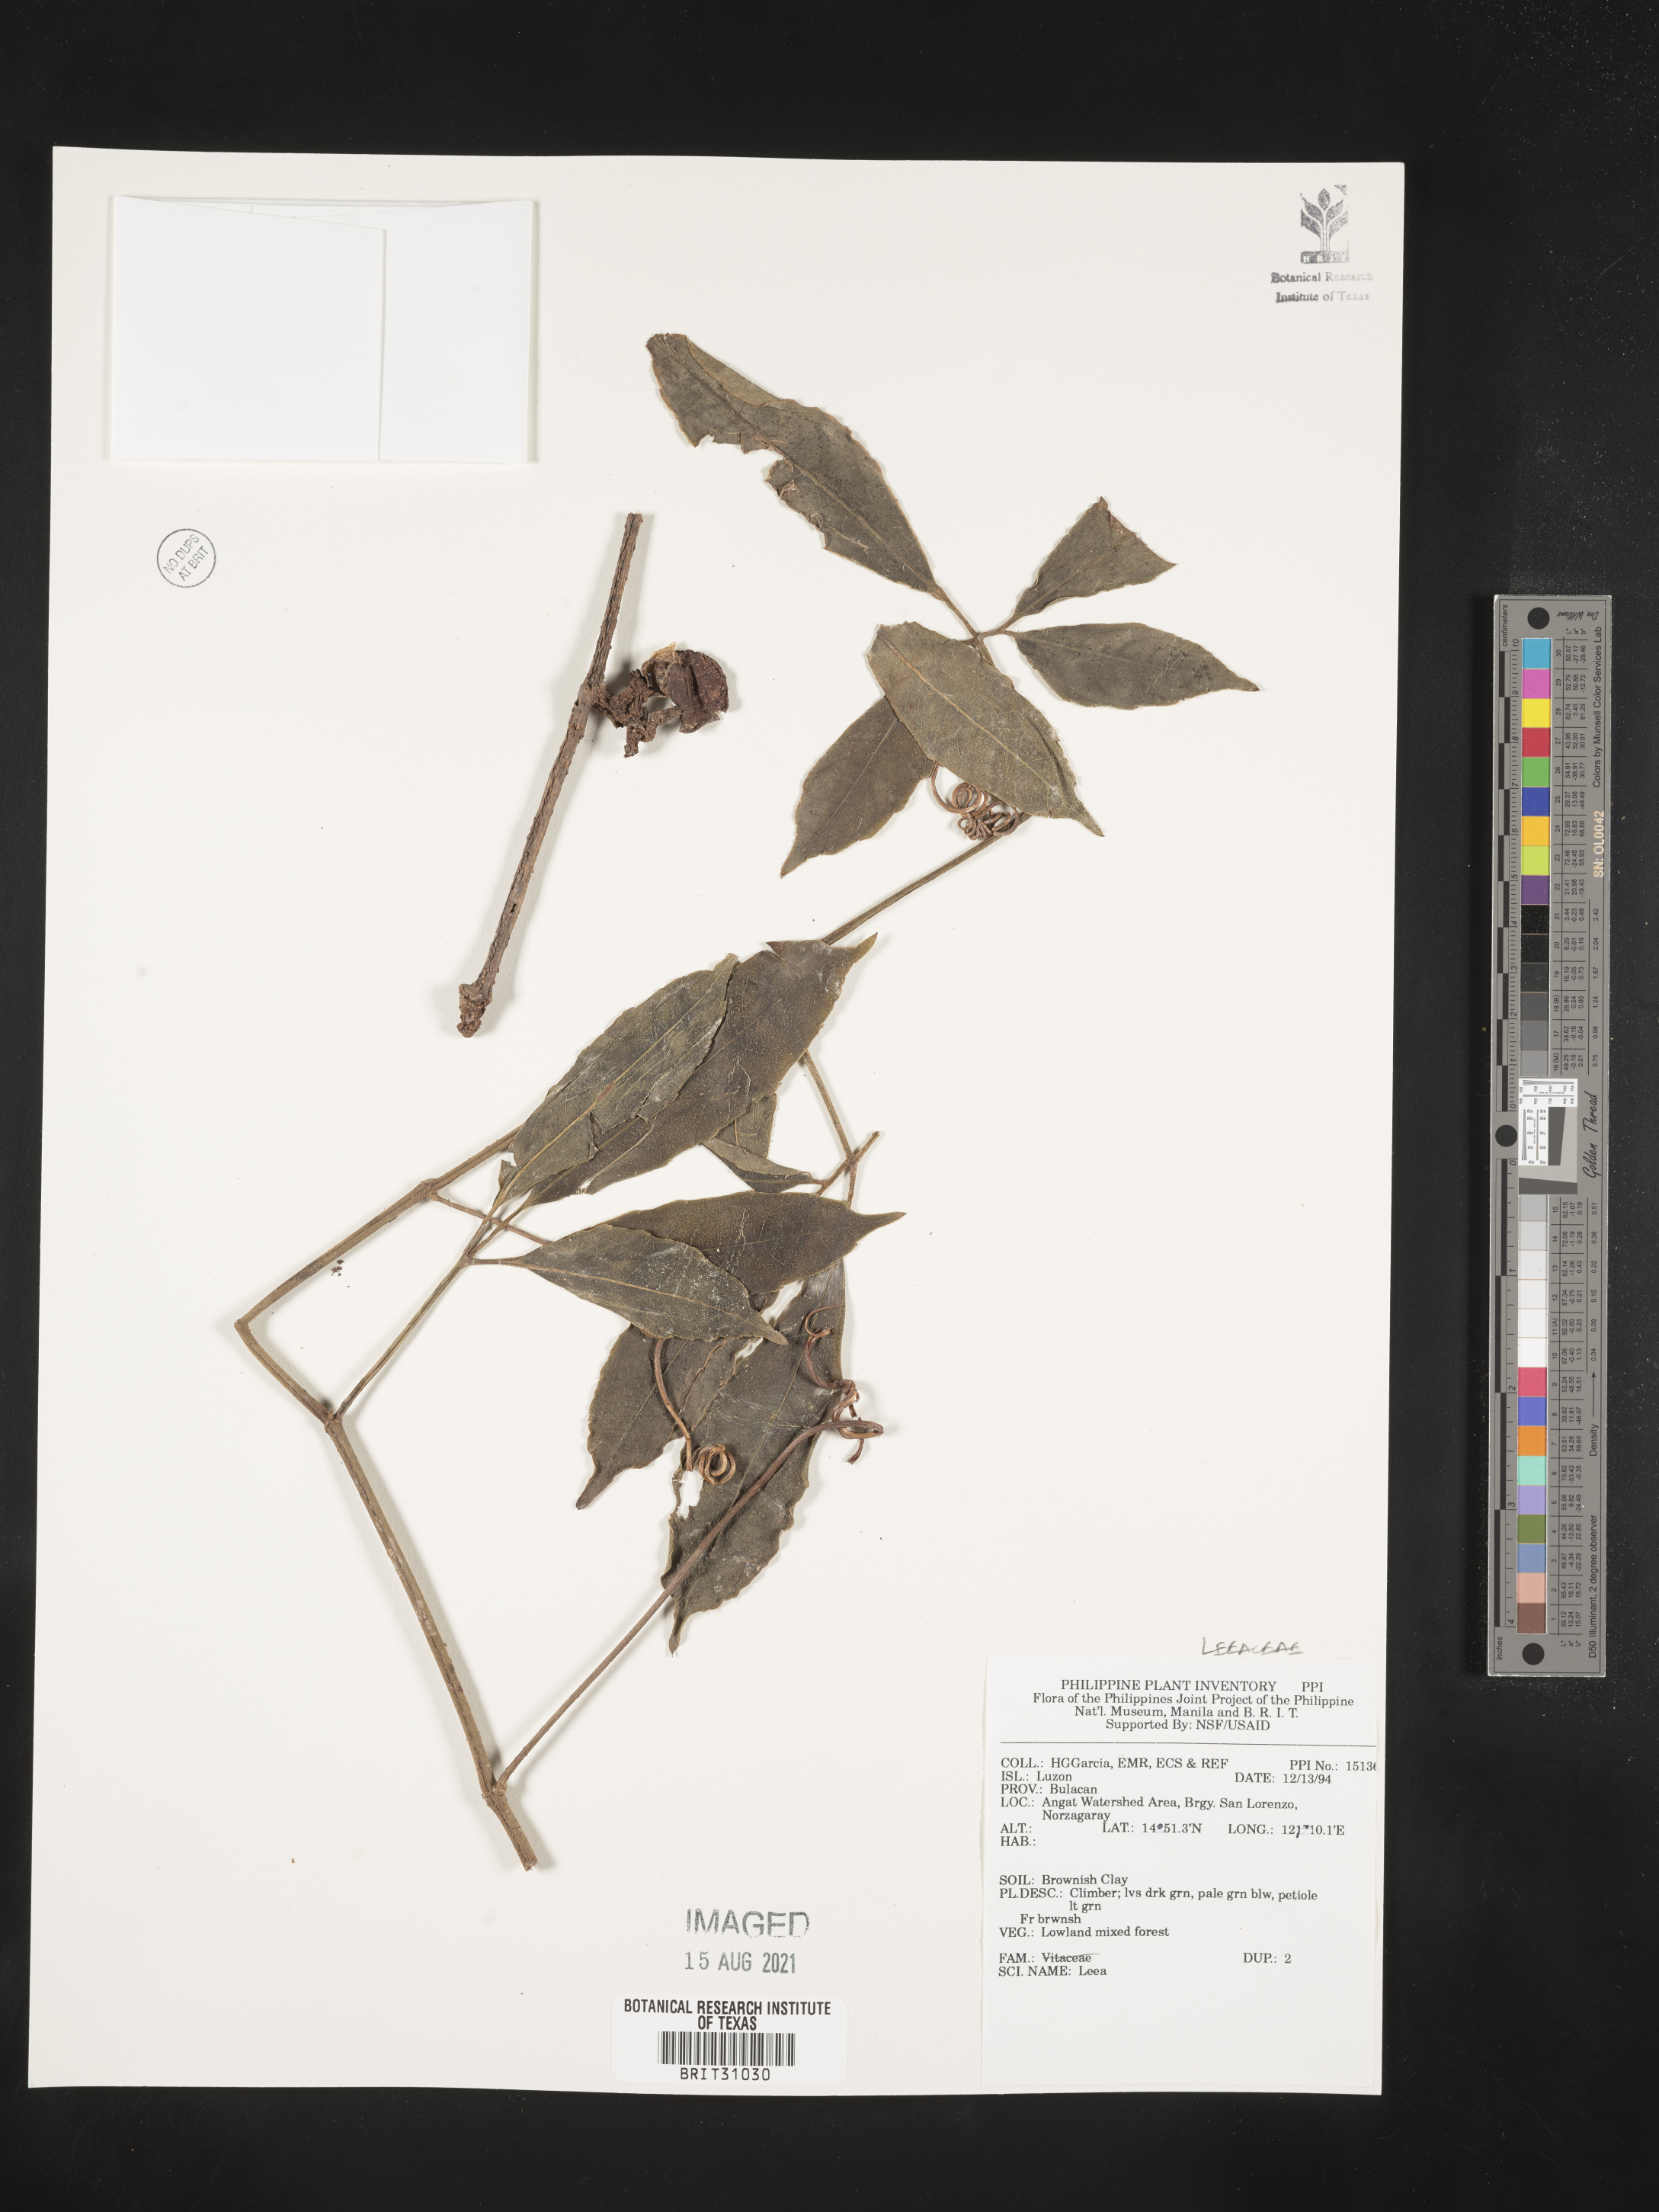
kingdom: Plantae
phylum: Tracheophyta
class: Magnoliopsida
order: Vitales
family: Vitaceae
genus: Leea
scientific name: Leea
